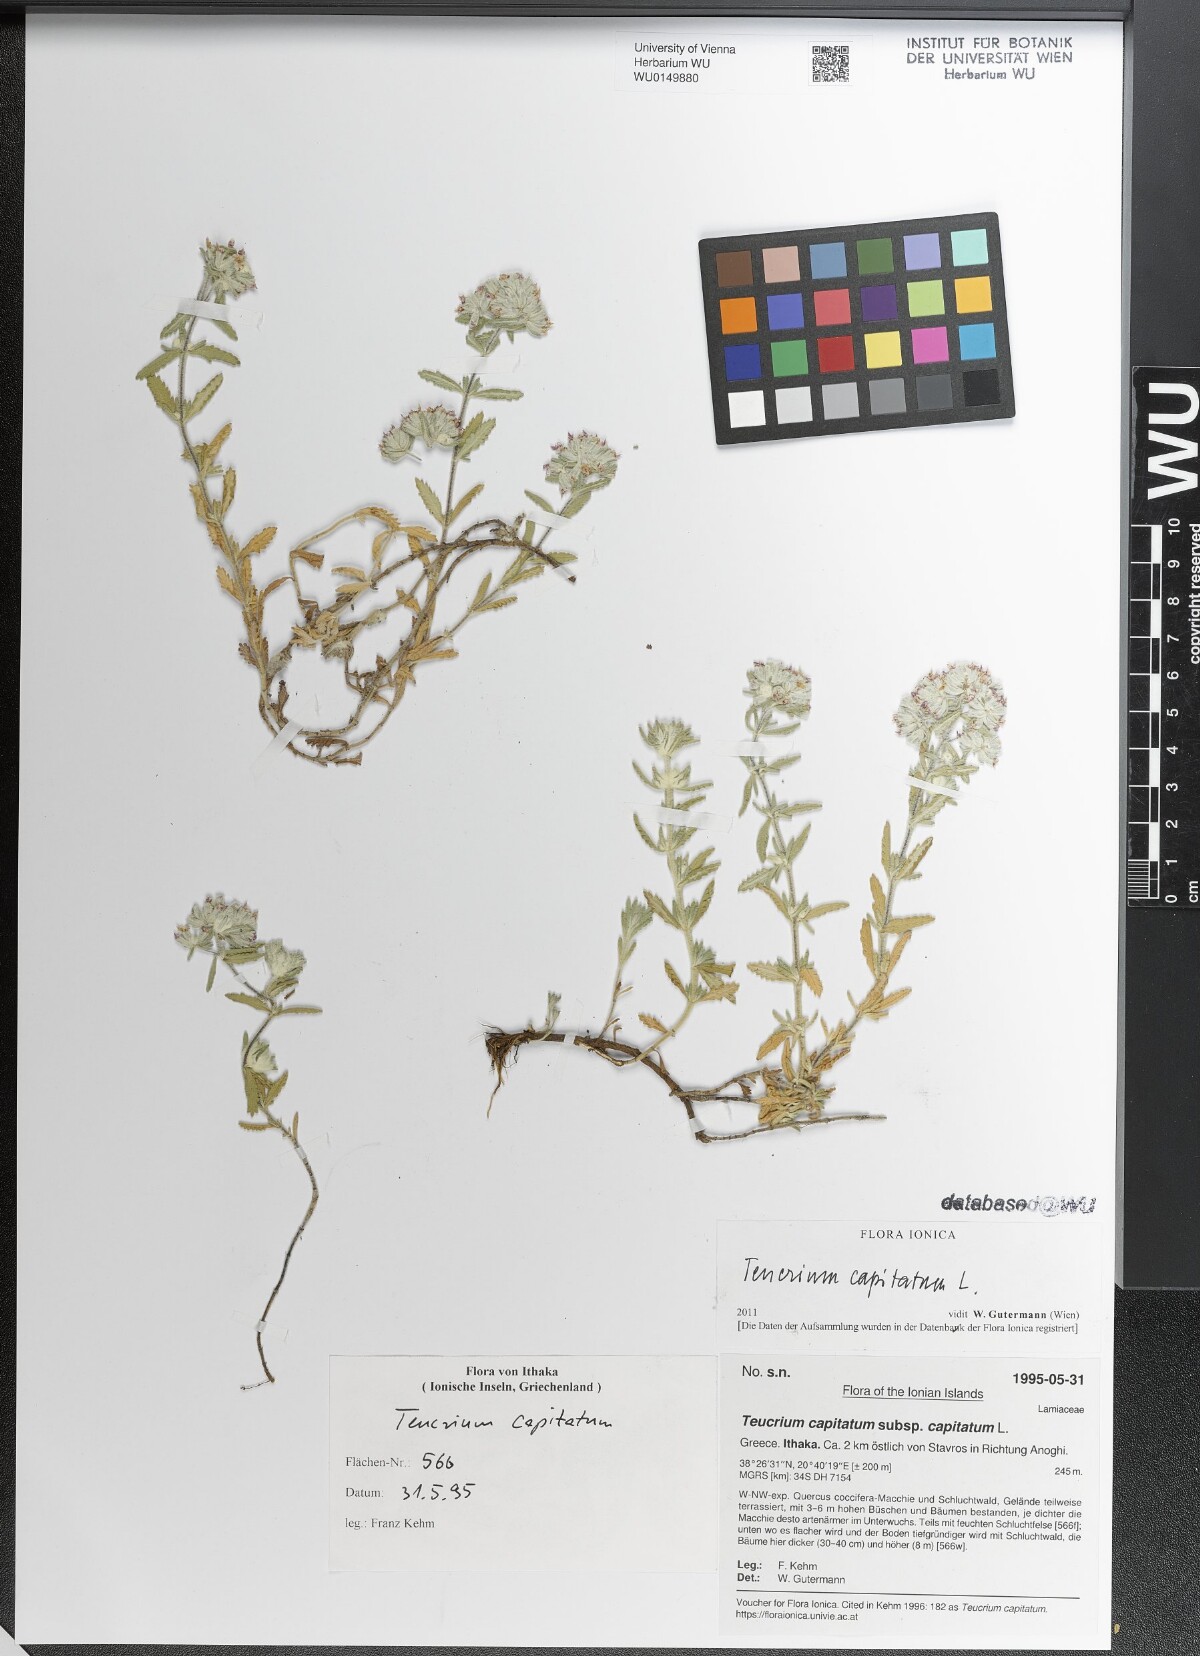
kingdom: Plantae
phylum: Tracheophyta
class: Magnoliopsida
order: Lamiales
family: Lamiaceae
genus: Teucrium
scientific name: Teucrium capitatum
